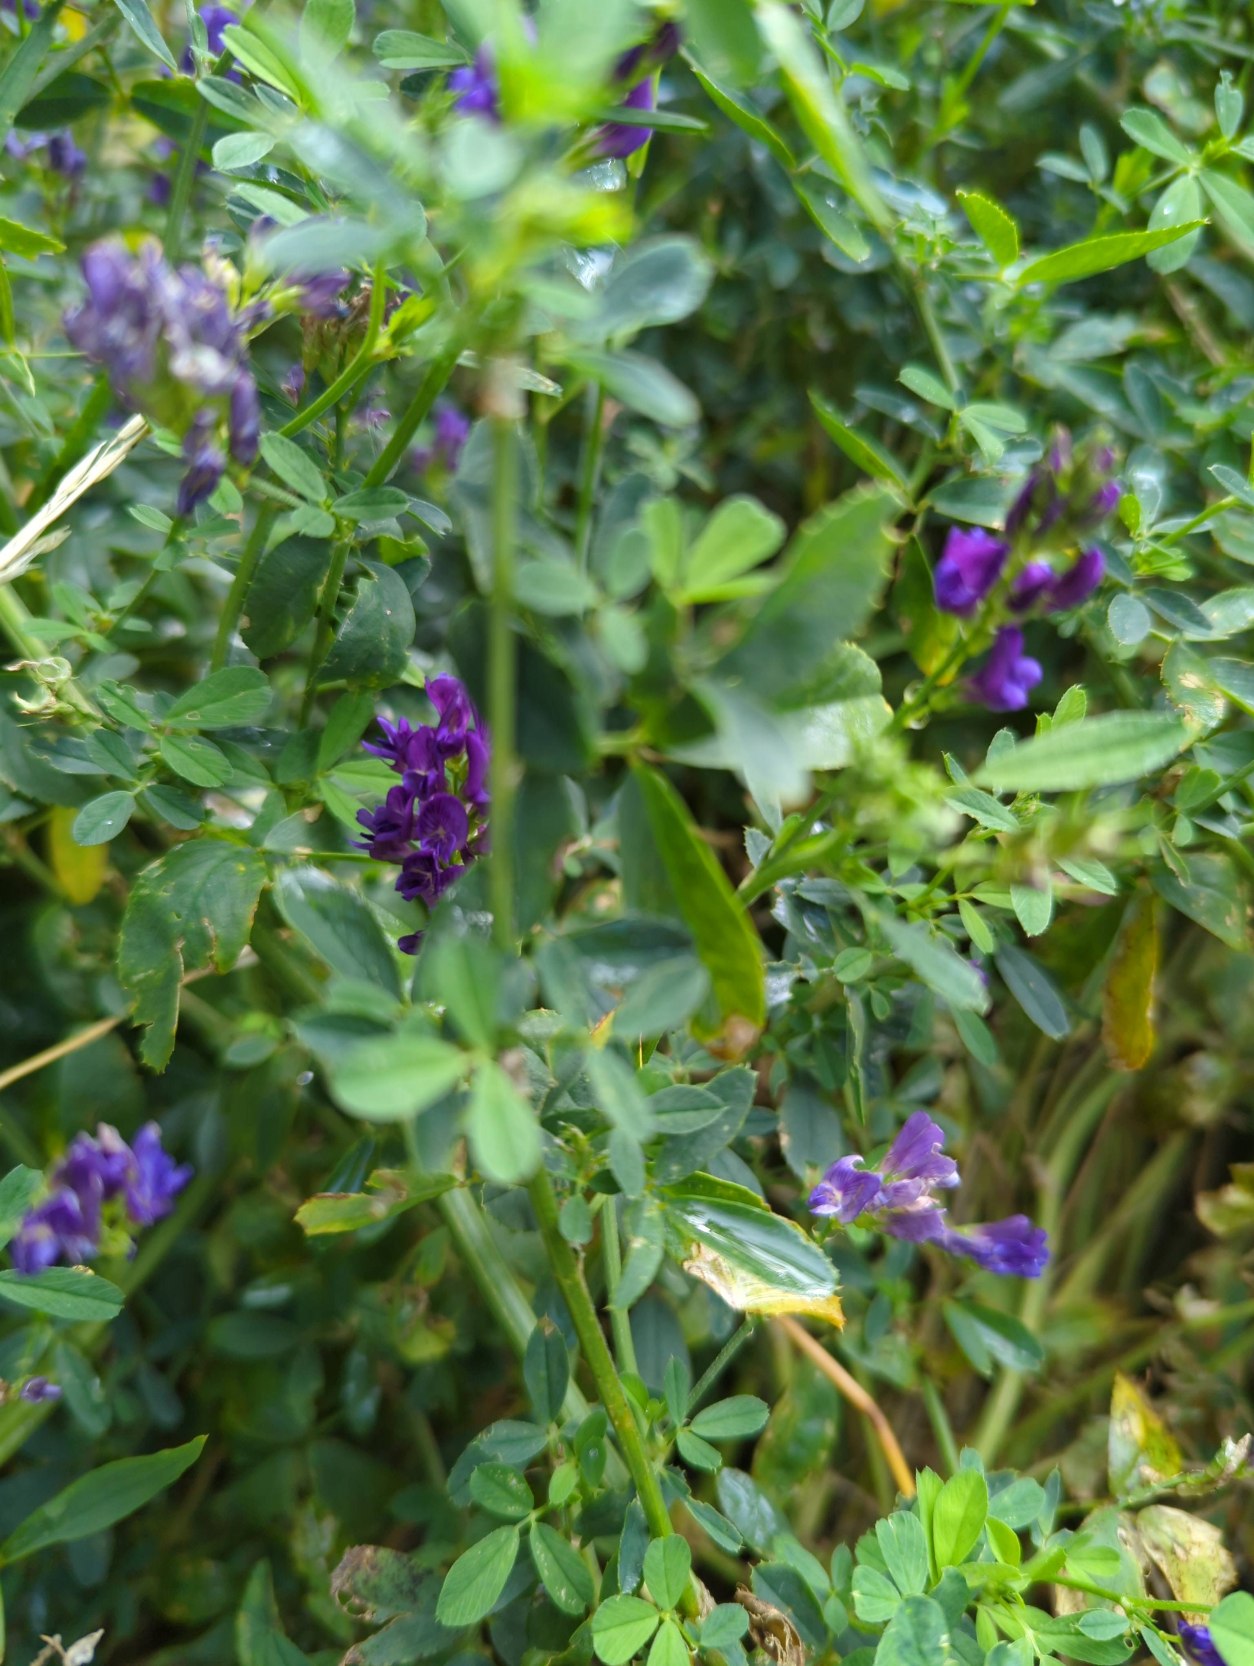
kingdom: Plantae
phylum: Tracheophyta
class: Magnoliopsida
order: Fabales
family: Fabaceae
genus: Medicago
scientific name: Medicago sativa
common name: Lucerne
